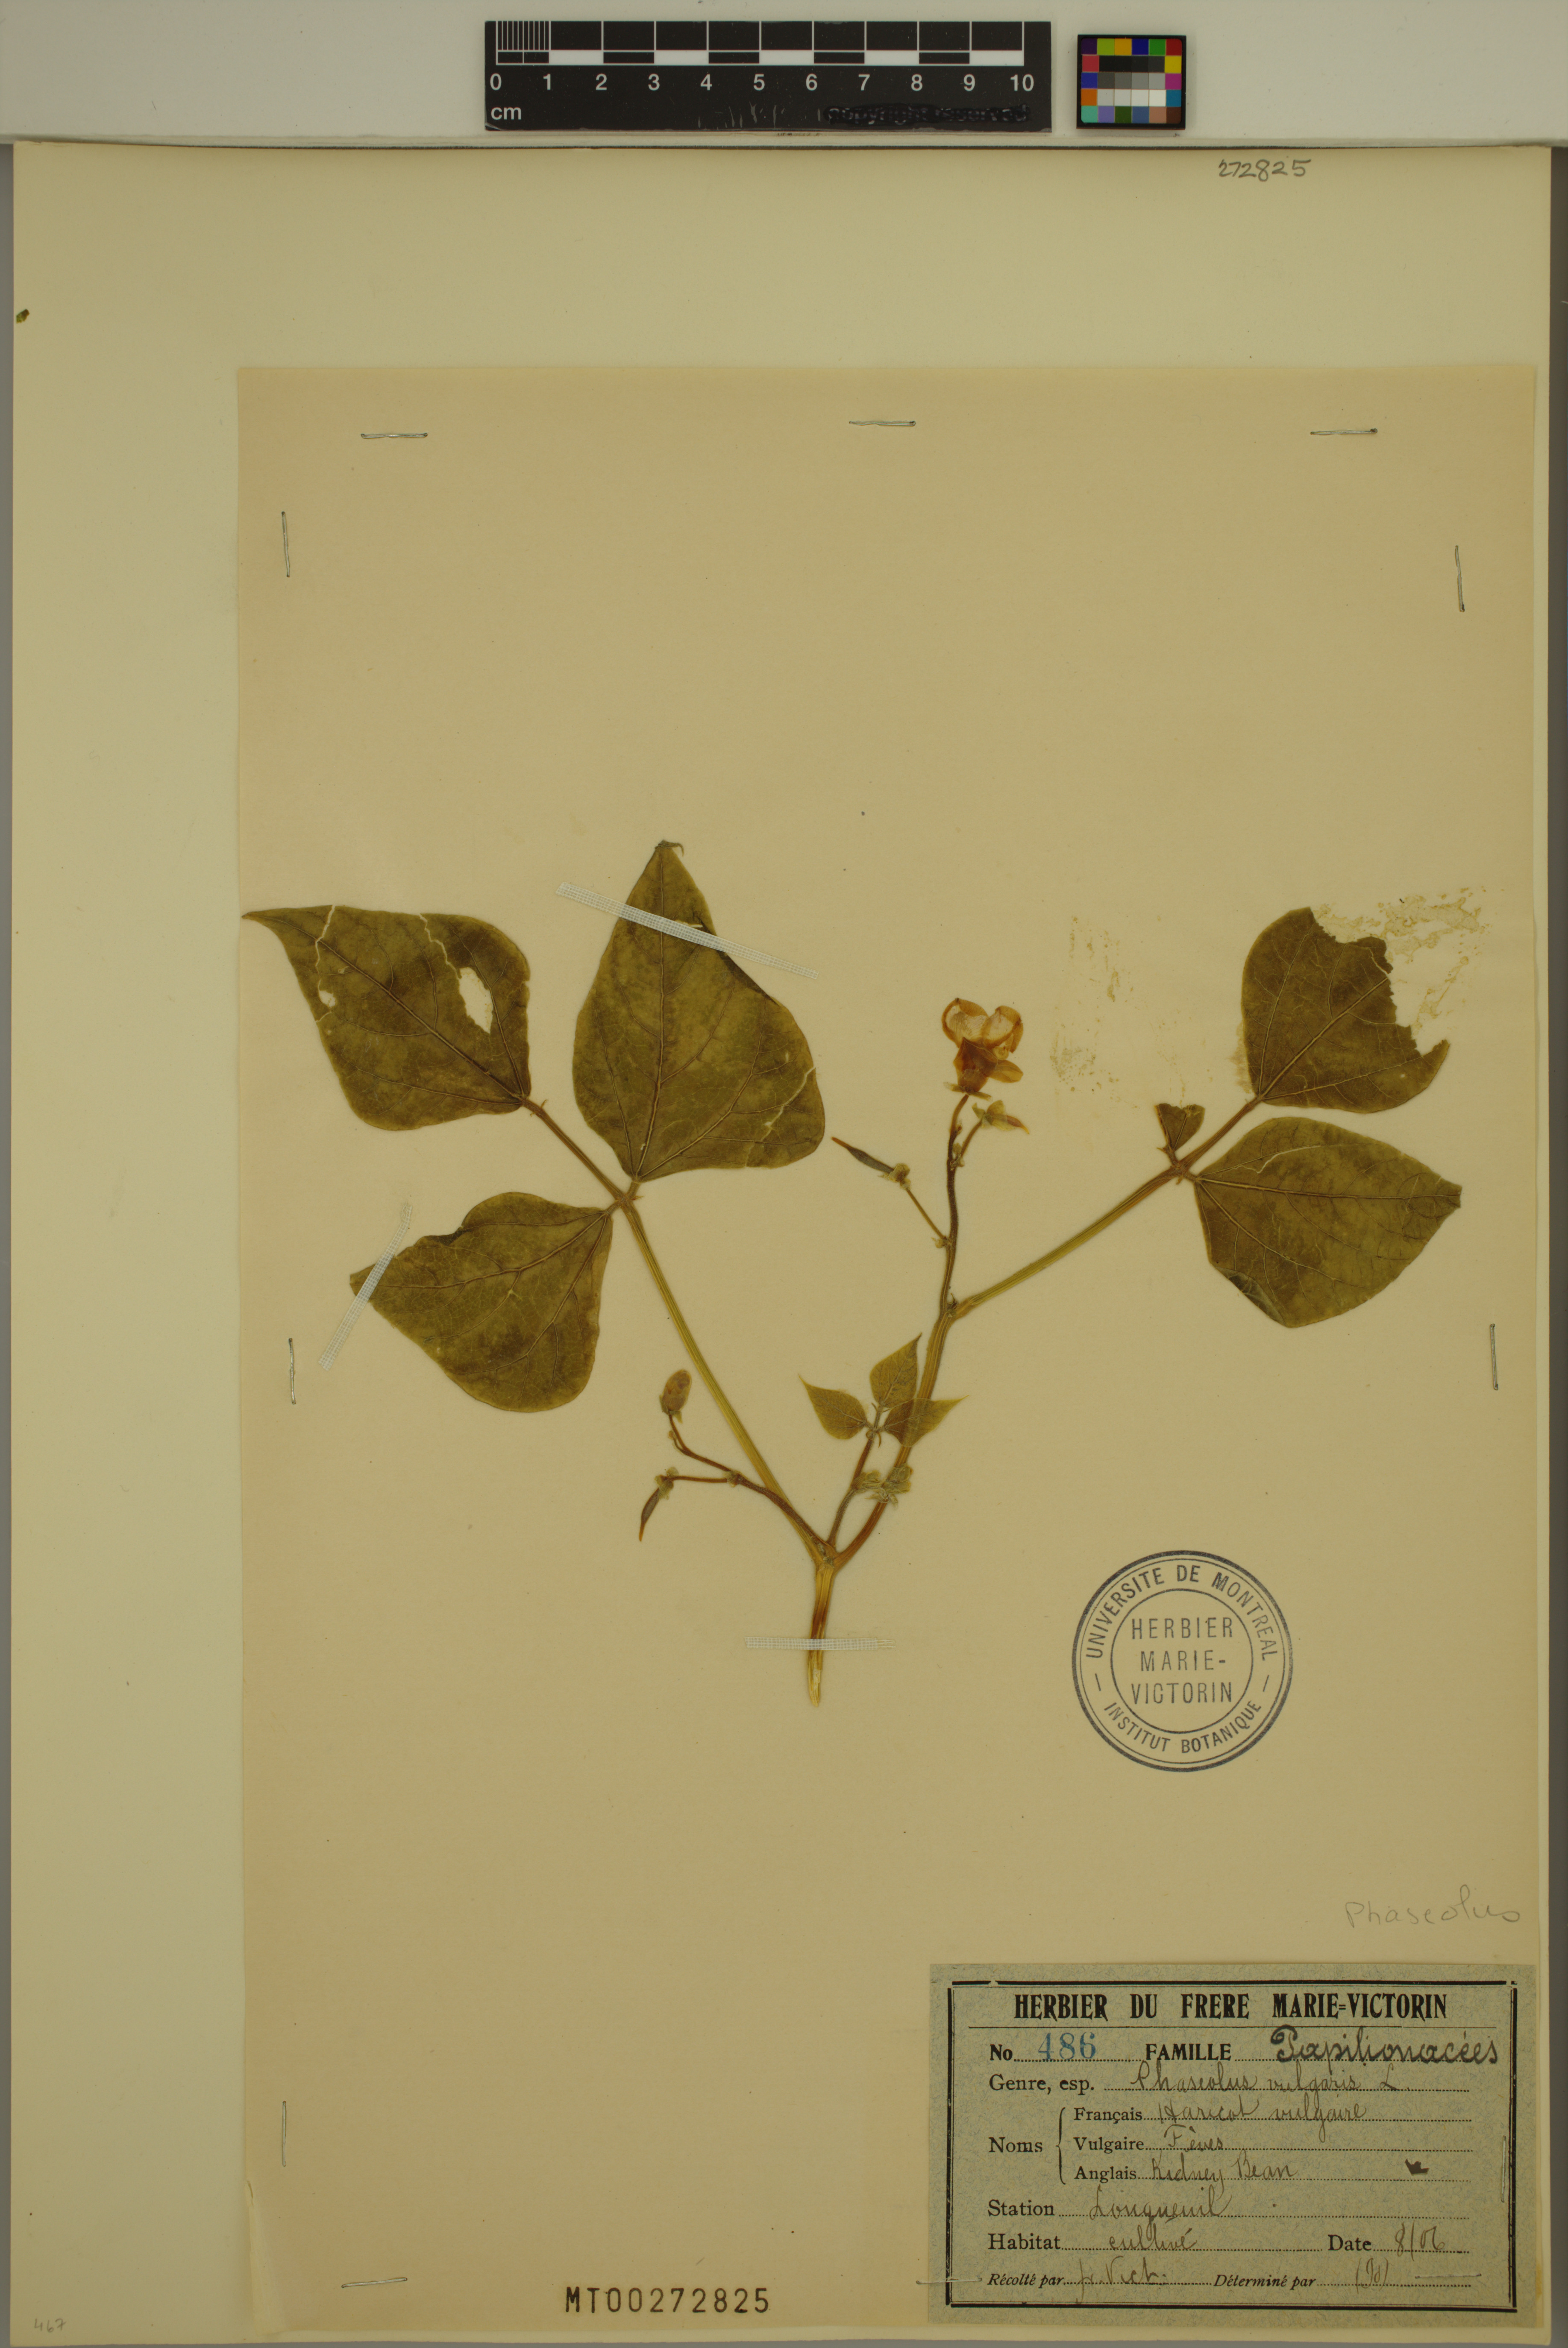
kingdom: Plantae
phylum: Tracheophyta
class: Magnoliopsida
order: Fabales
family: Fabaceae
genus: Phaseolus
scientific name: Phaseolus vulgaris
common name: Bean
